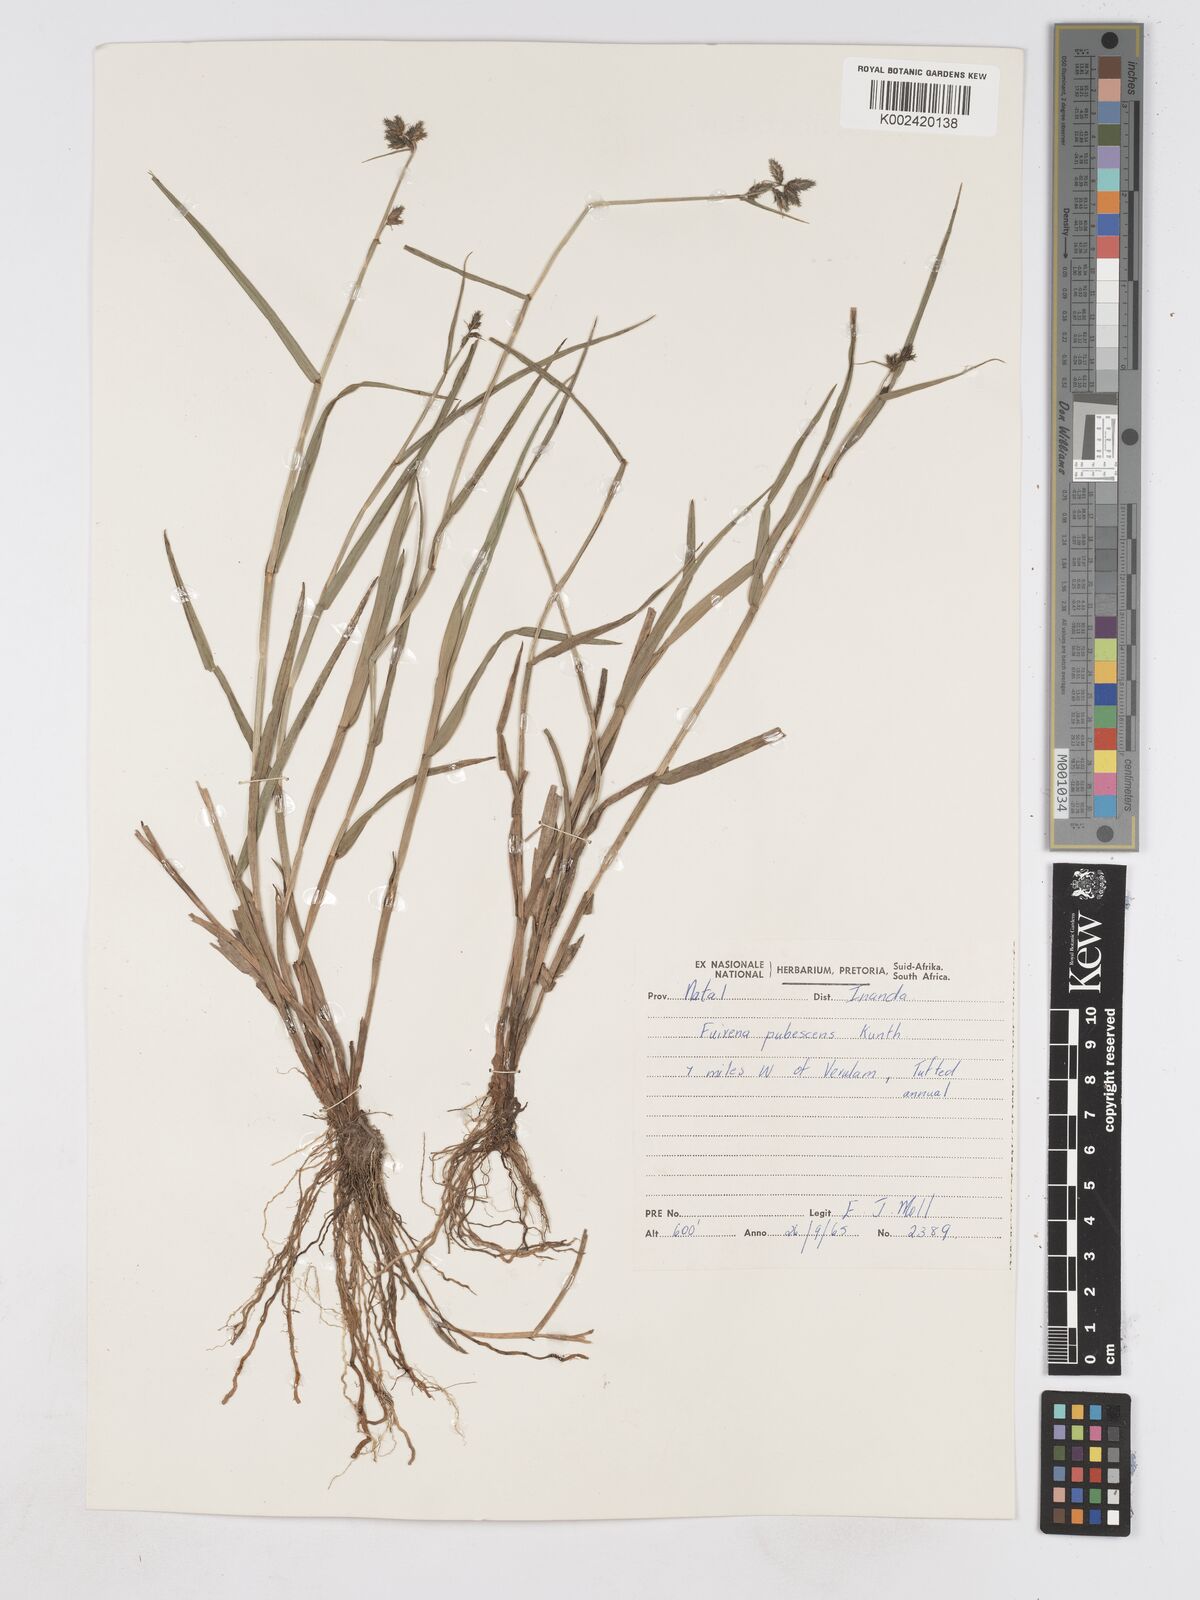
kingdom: Plantae
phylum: Tracheophyta
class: Liliopsida
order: Poales
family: Cyperaceae
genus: Fuirena
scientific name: Fuirena pubescens
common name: Hairy sedge
